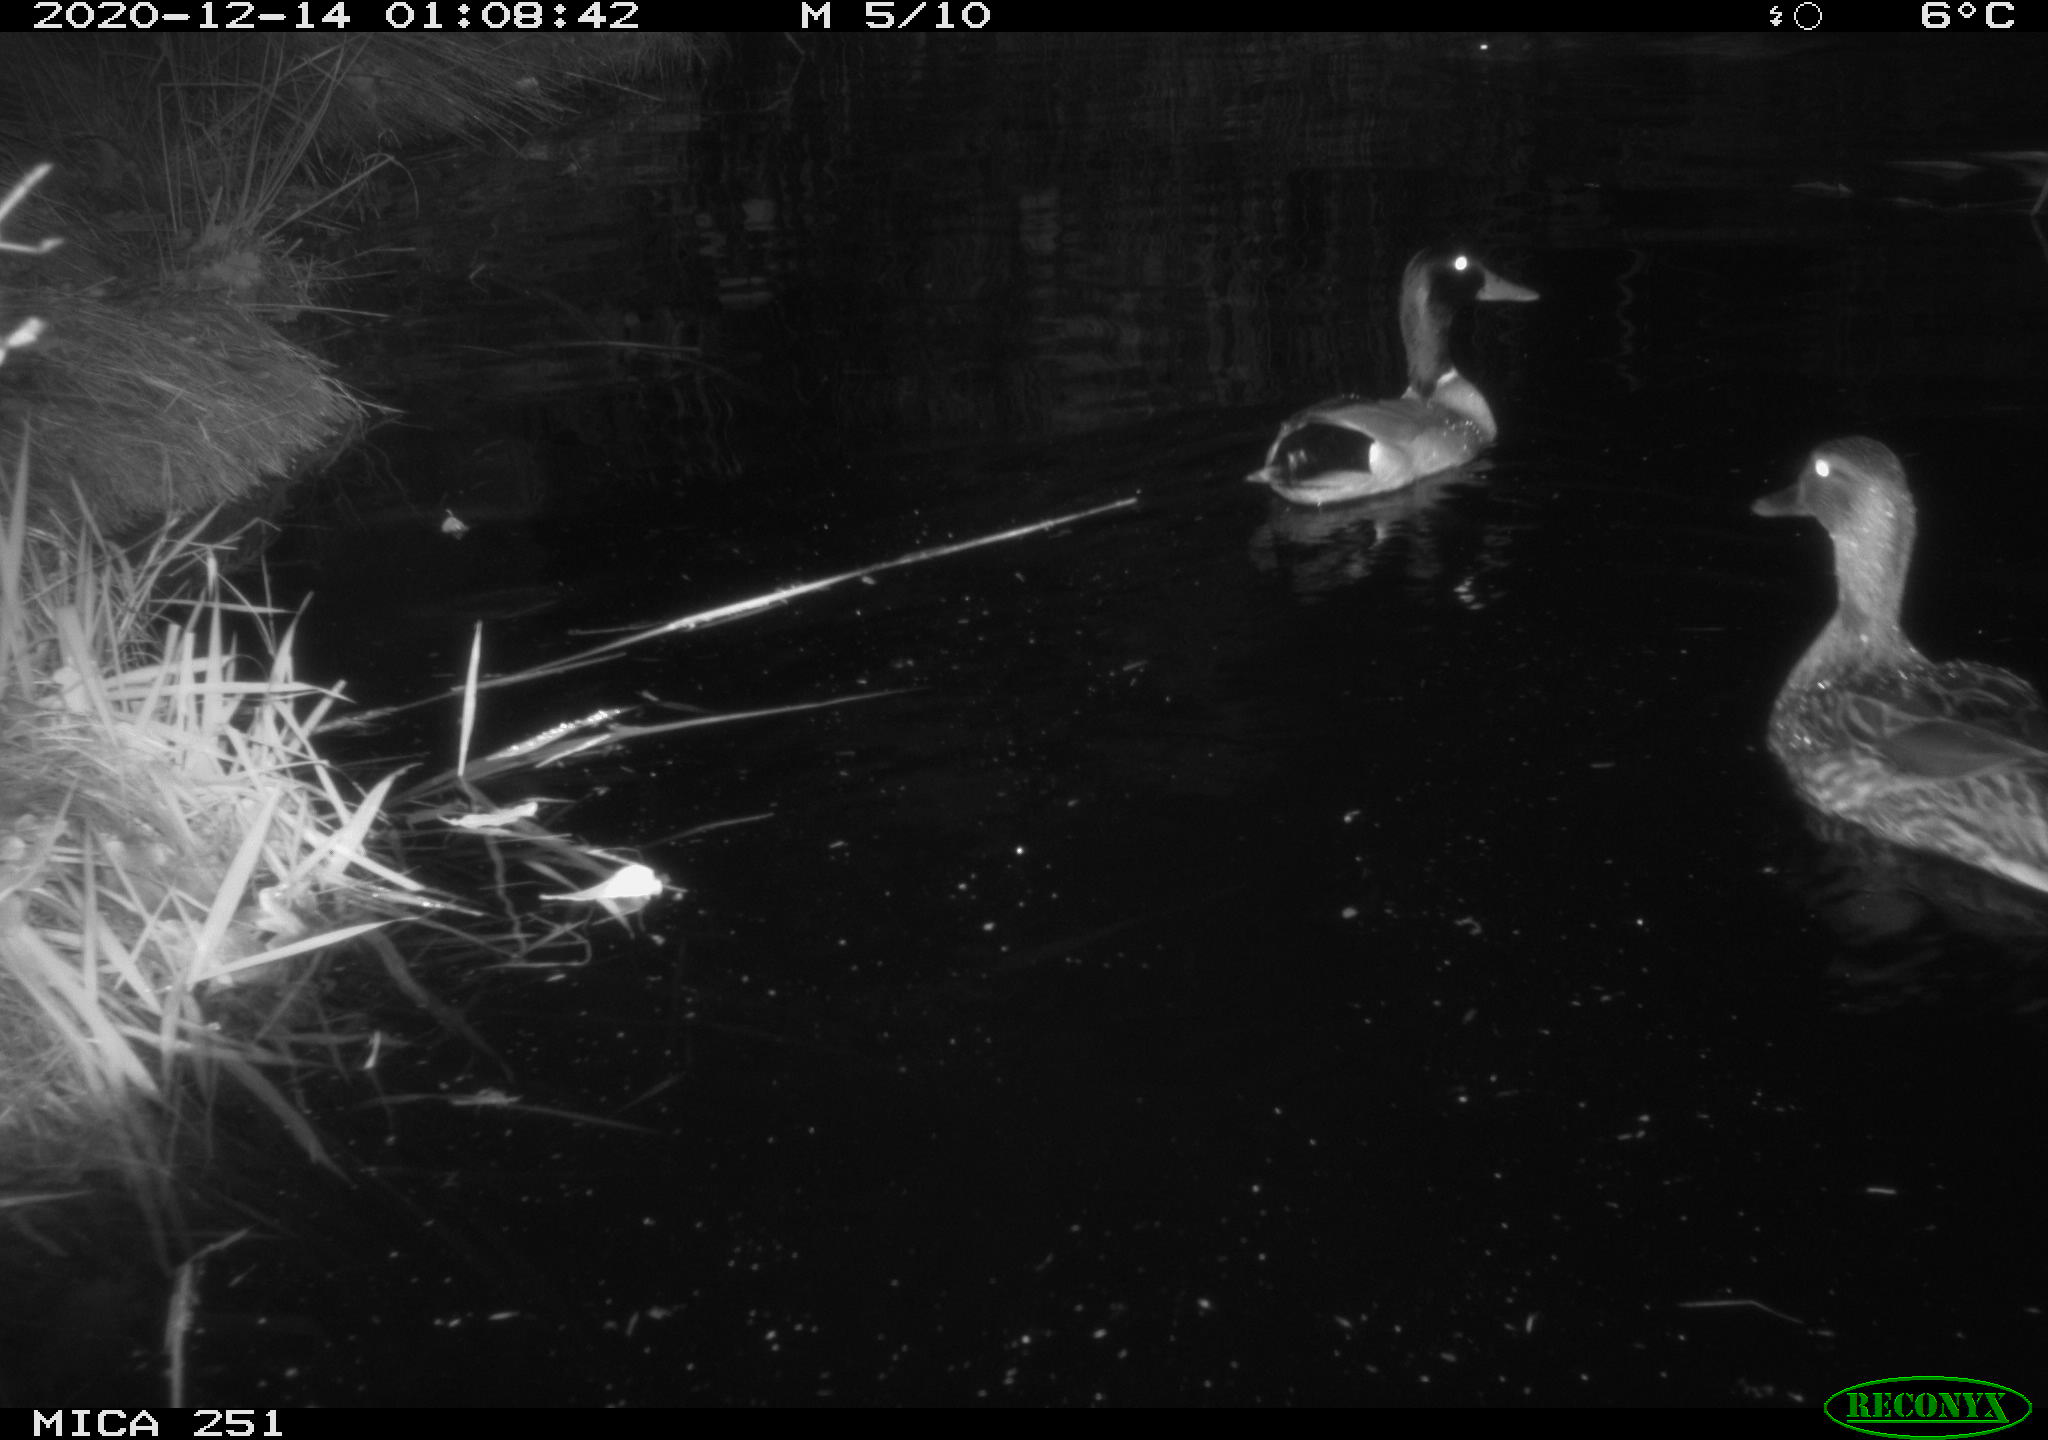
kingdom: Animalia
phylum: Chordata
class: Mammalia
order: Rodentia
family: Castoridae
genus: Castor
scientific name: Castor fiber
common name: Eurasian beaver
